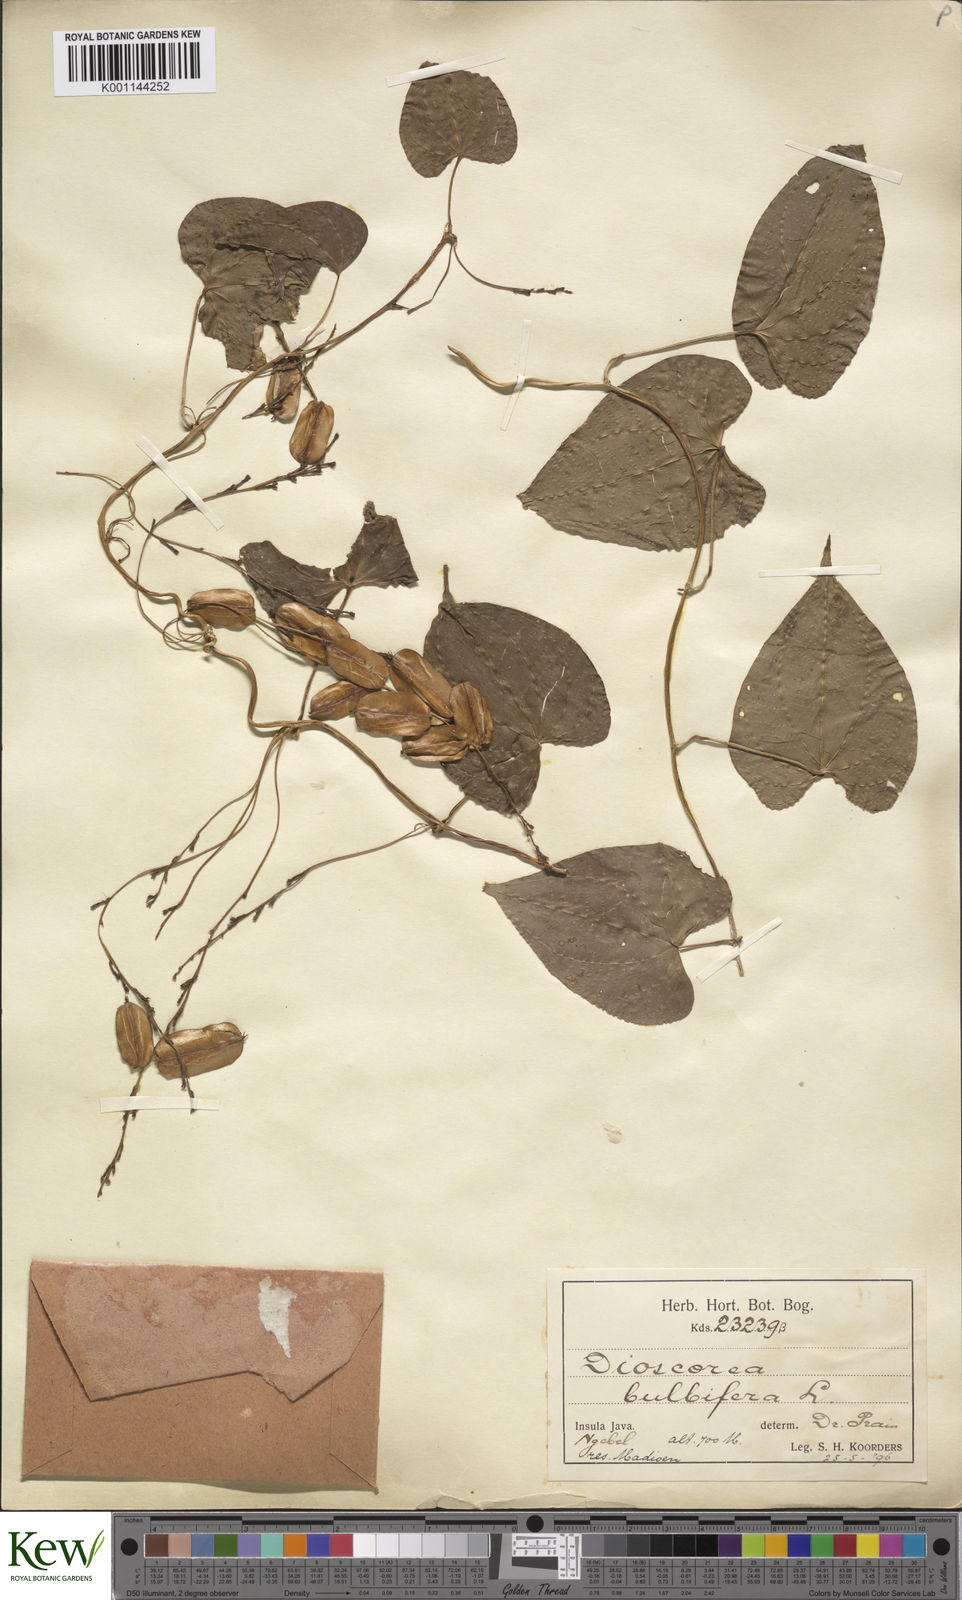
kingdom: Plantae
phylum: Tracheophyta
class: Liliopsida
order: Dioscoreales
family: Dioscoreaceae
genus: Dioscorea
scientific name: Dioscorea bulbifera
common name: Air yam
